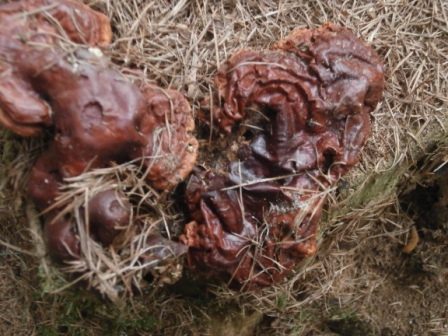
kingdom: Fungi
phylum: Basidiomycota
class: Agaricomycetes
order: Polyporales
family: Polyporaceae
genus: Ganoderma
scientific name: Ganoderma lucidum
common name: skinnende lakporesvamp
